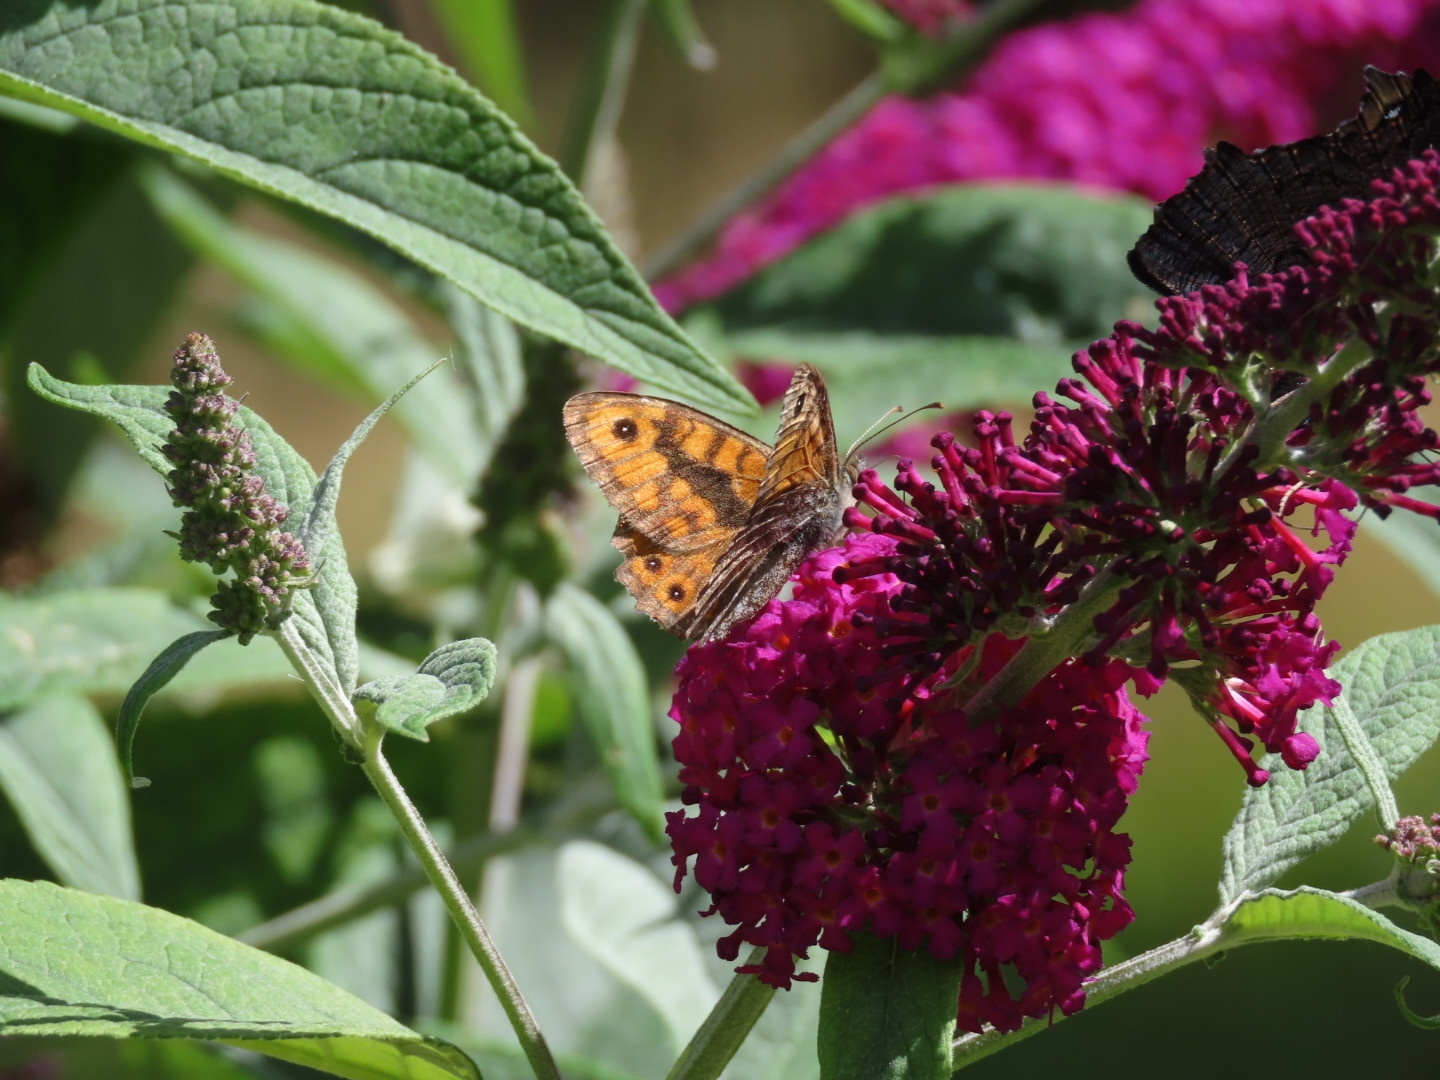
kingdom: Animalia
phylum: Arthropoda
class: Insecta
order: Lepidoptera
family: Nymphalidae
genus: Pararge
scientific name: Pararge Lasiommata megera
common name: Vejrandøje
